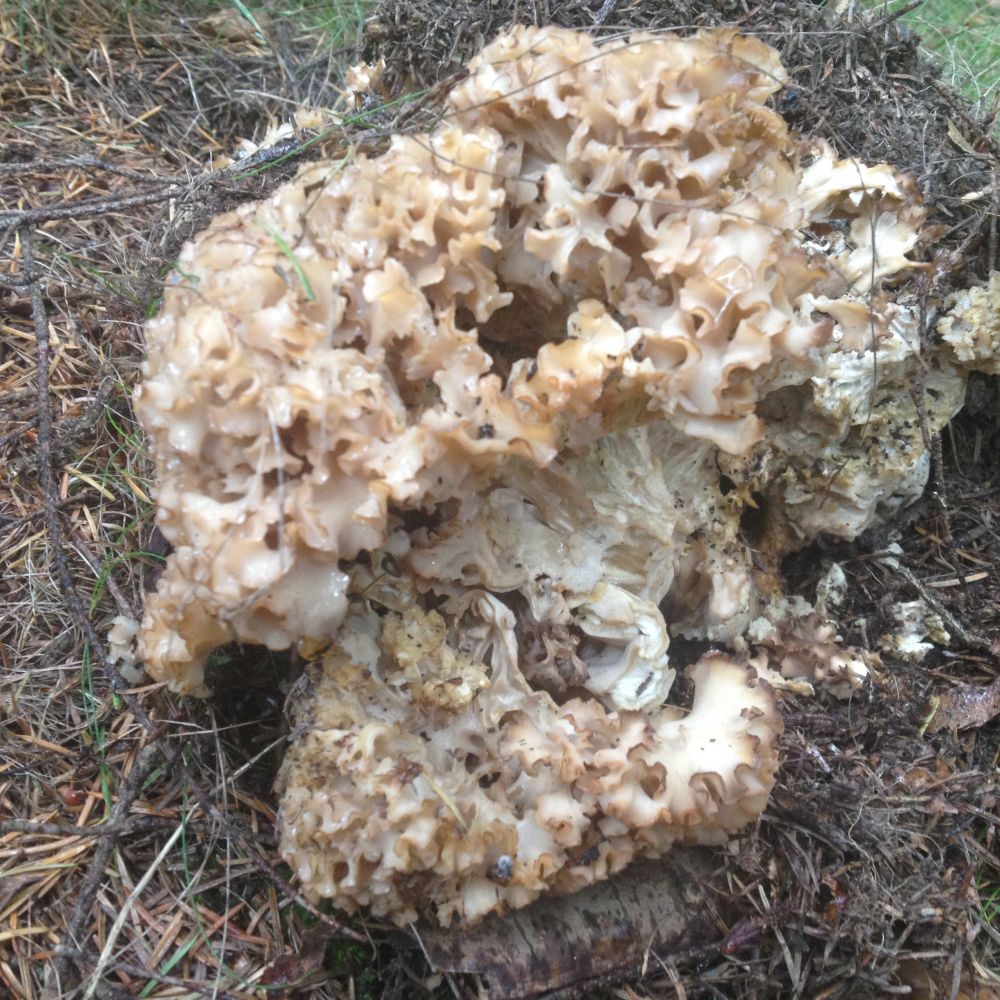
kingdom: Fungi
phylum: Basidiomycota
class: Agaricomycetes
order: Polyporales
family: Sparassidaceae
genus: Sparassis
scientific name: Sparassis crispa
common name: kruset blomkålssvamp
